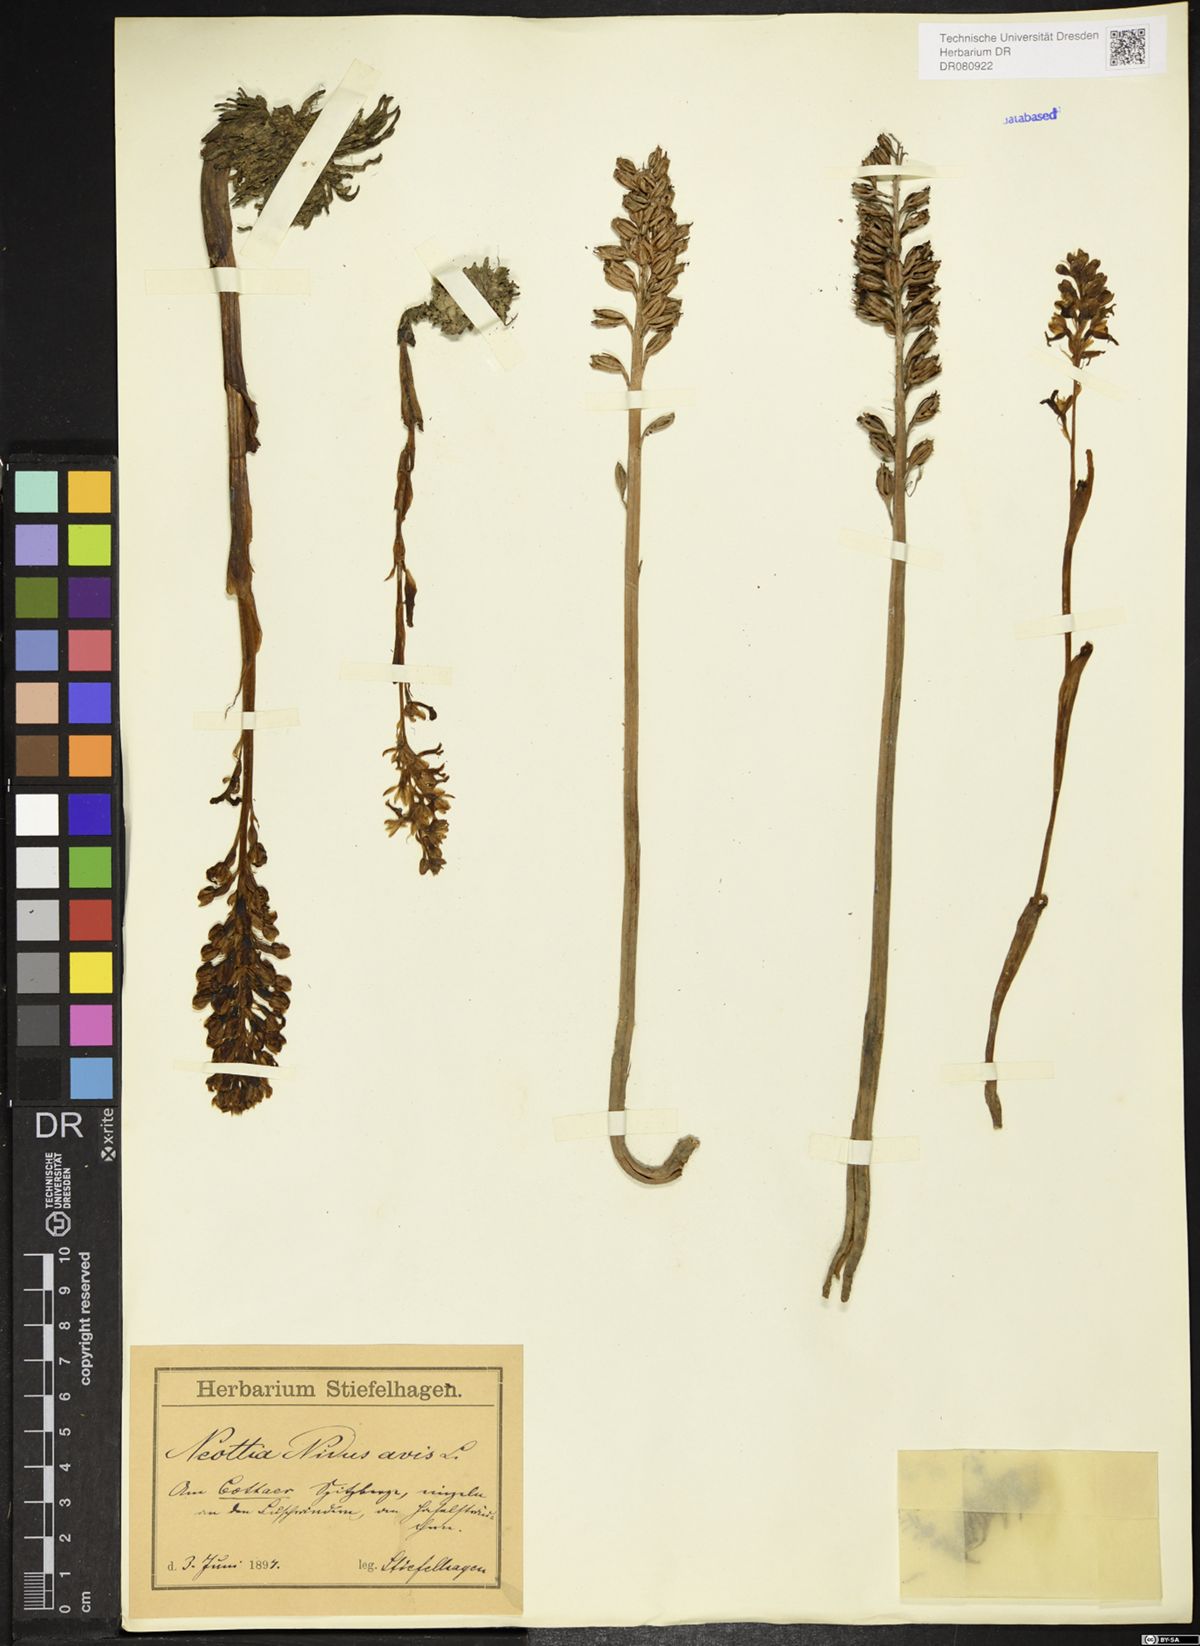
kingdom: Plantae
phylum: Tracheophyta
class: Liliopsida
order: Asparagales
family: Orchidaceae
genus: Neottia
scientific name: Neottia nidus-avis
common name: Bird's-nest orchid
